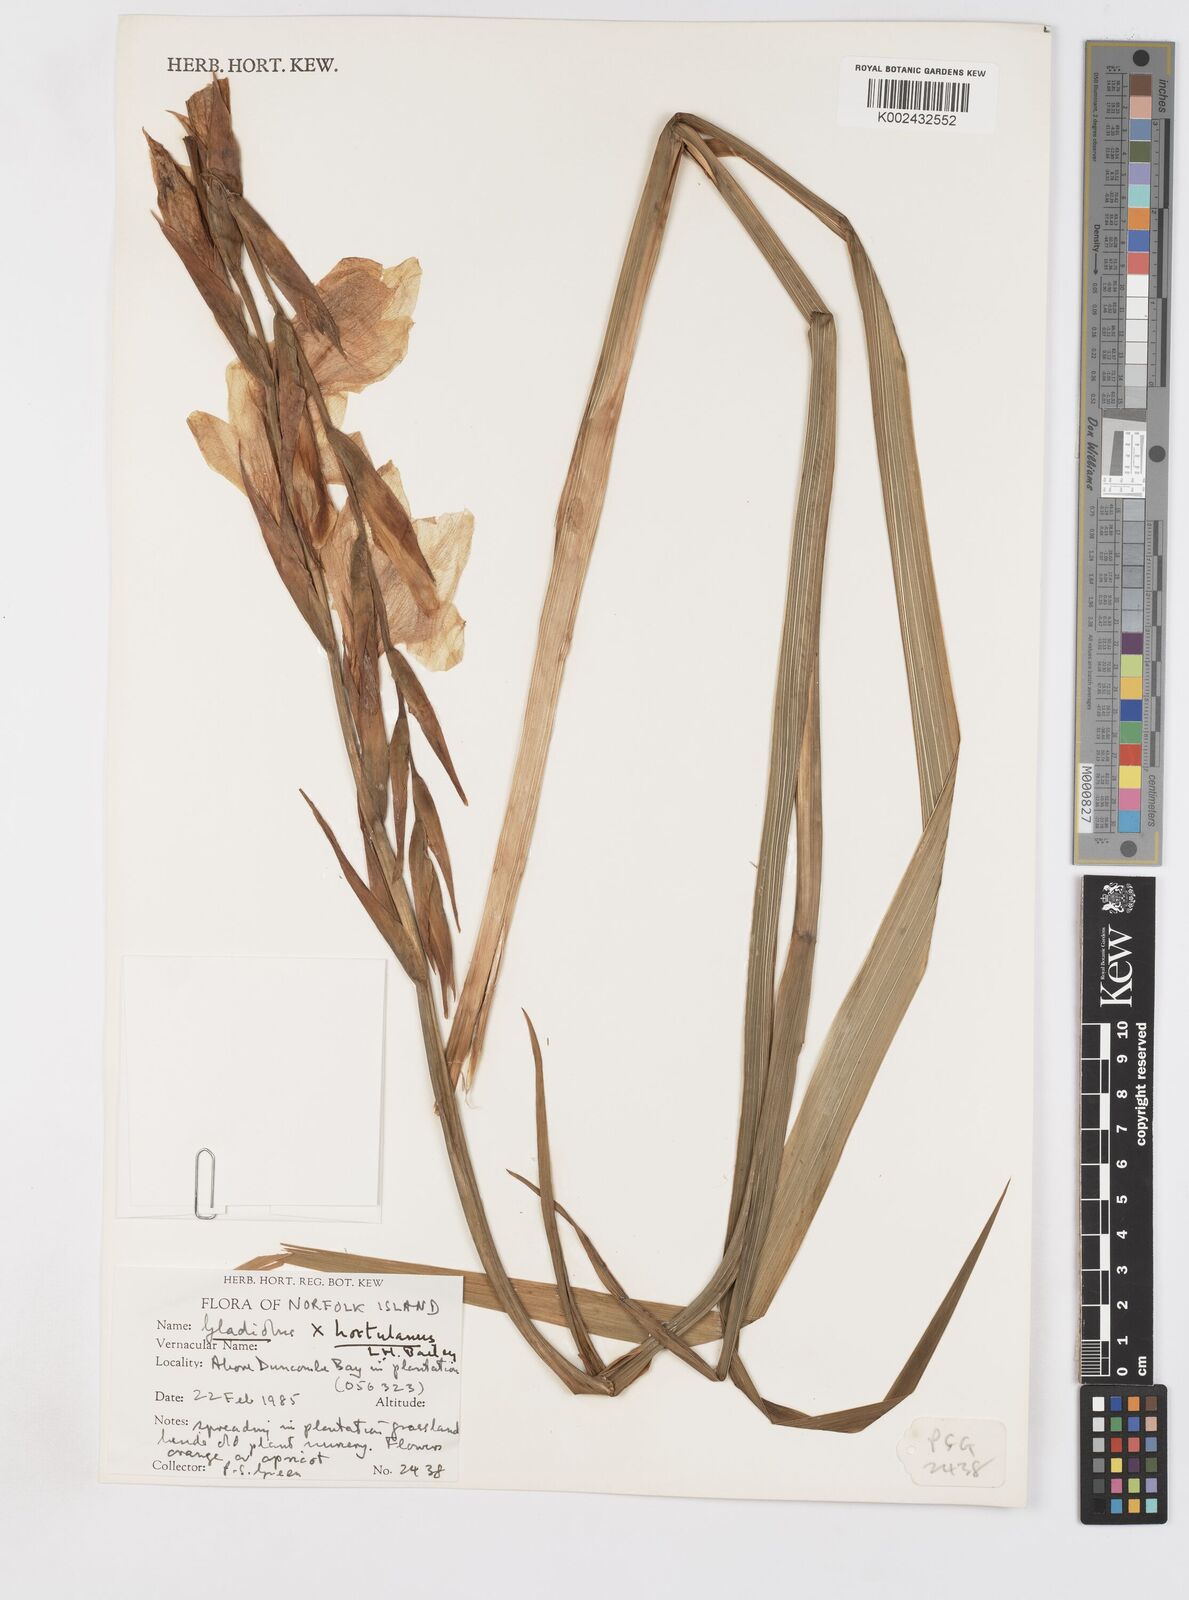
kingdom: Plantae
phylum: Tracheophyta
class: Liliopsida
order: Asparagales
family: Iridaceae
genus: Gladiolus
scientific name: Gladiolus hortulanus
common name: Large-flowered gladiolus
